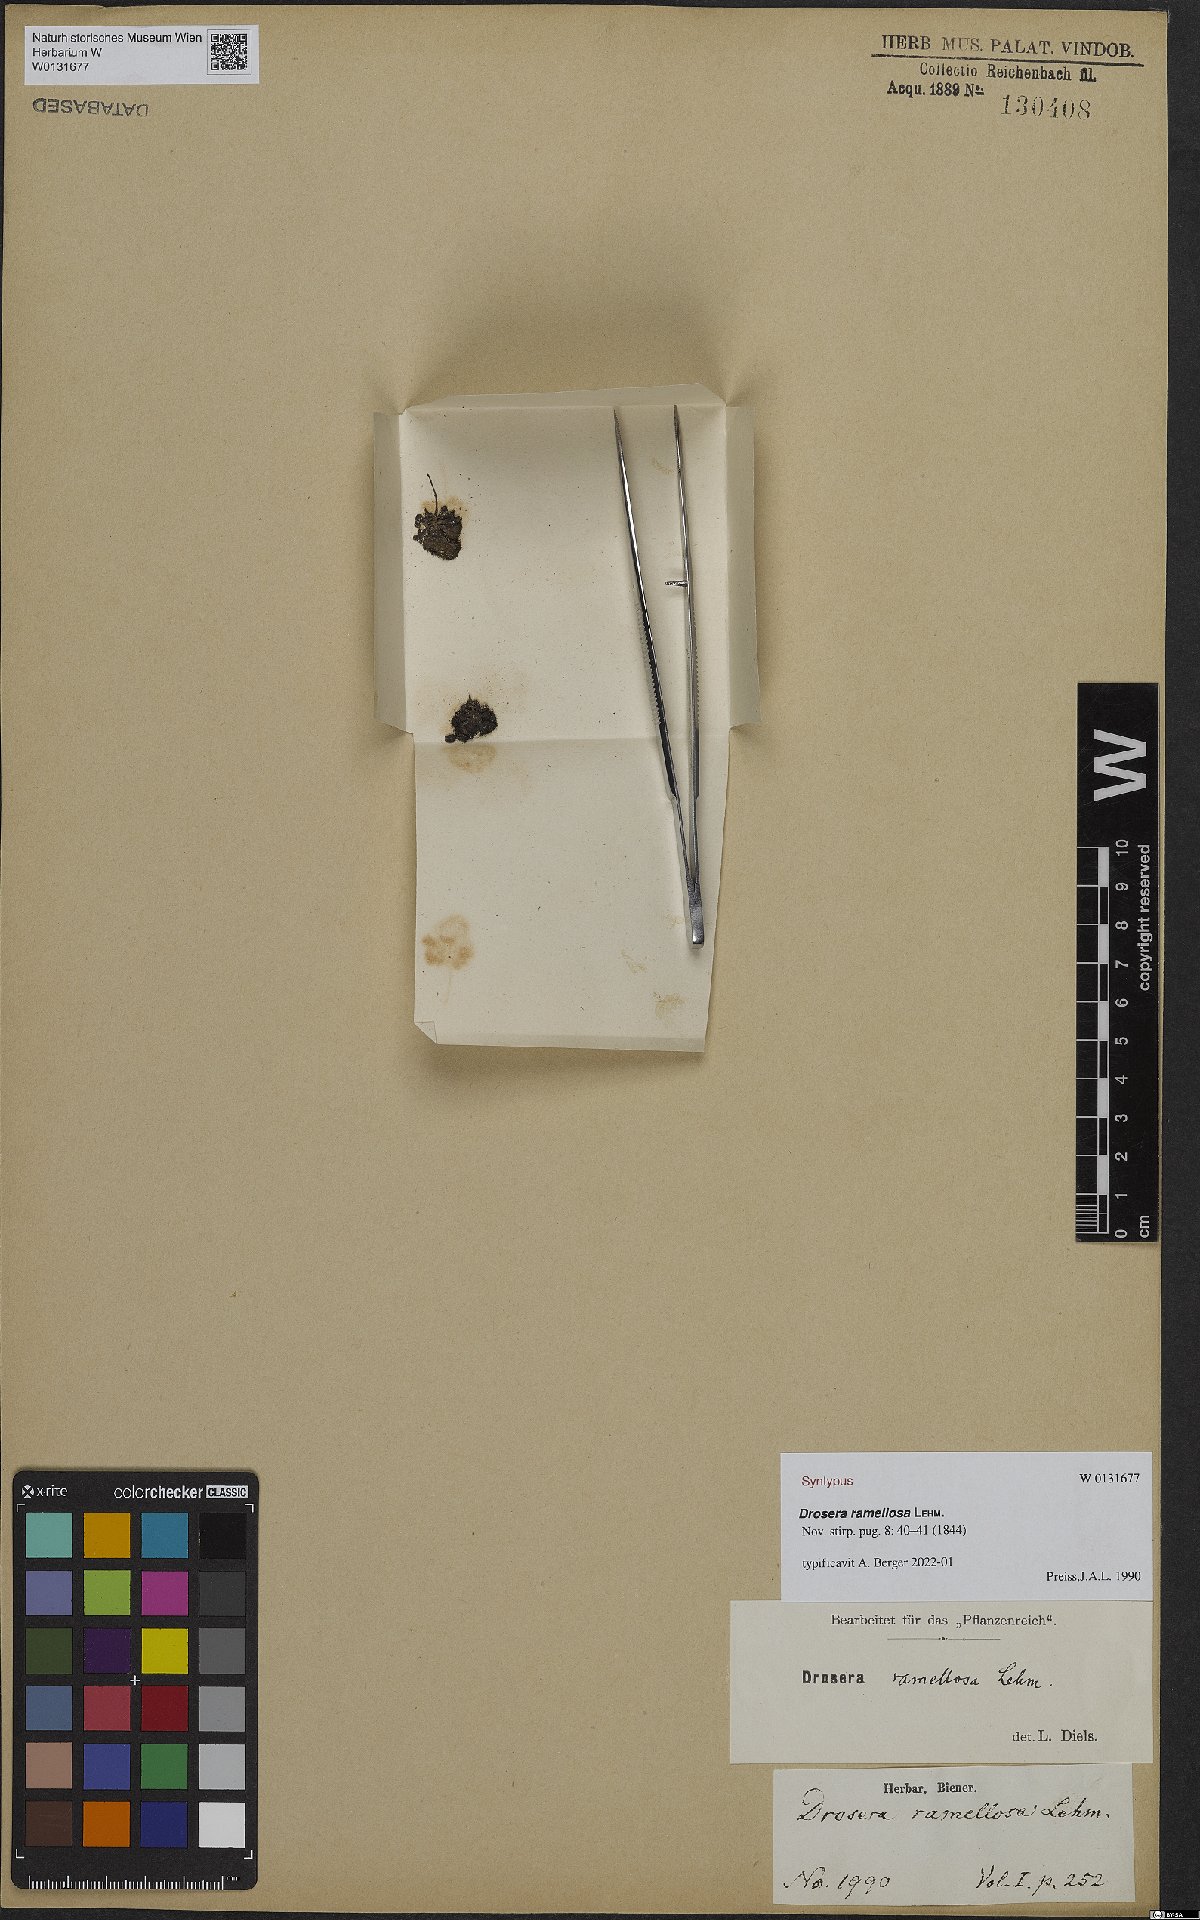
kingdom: Plantae
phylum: Tracheophyta
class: Magnoliopsida
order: Caryophyllales
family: Droseraceae
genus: Drosera
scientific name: Drosera ramellosa
